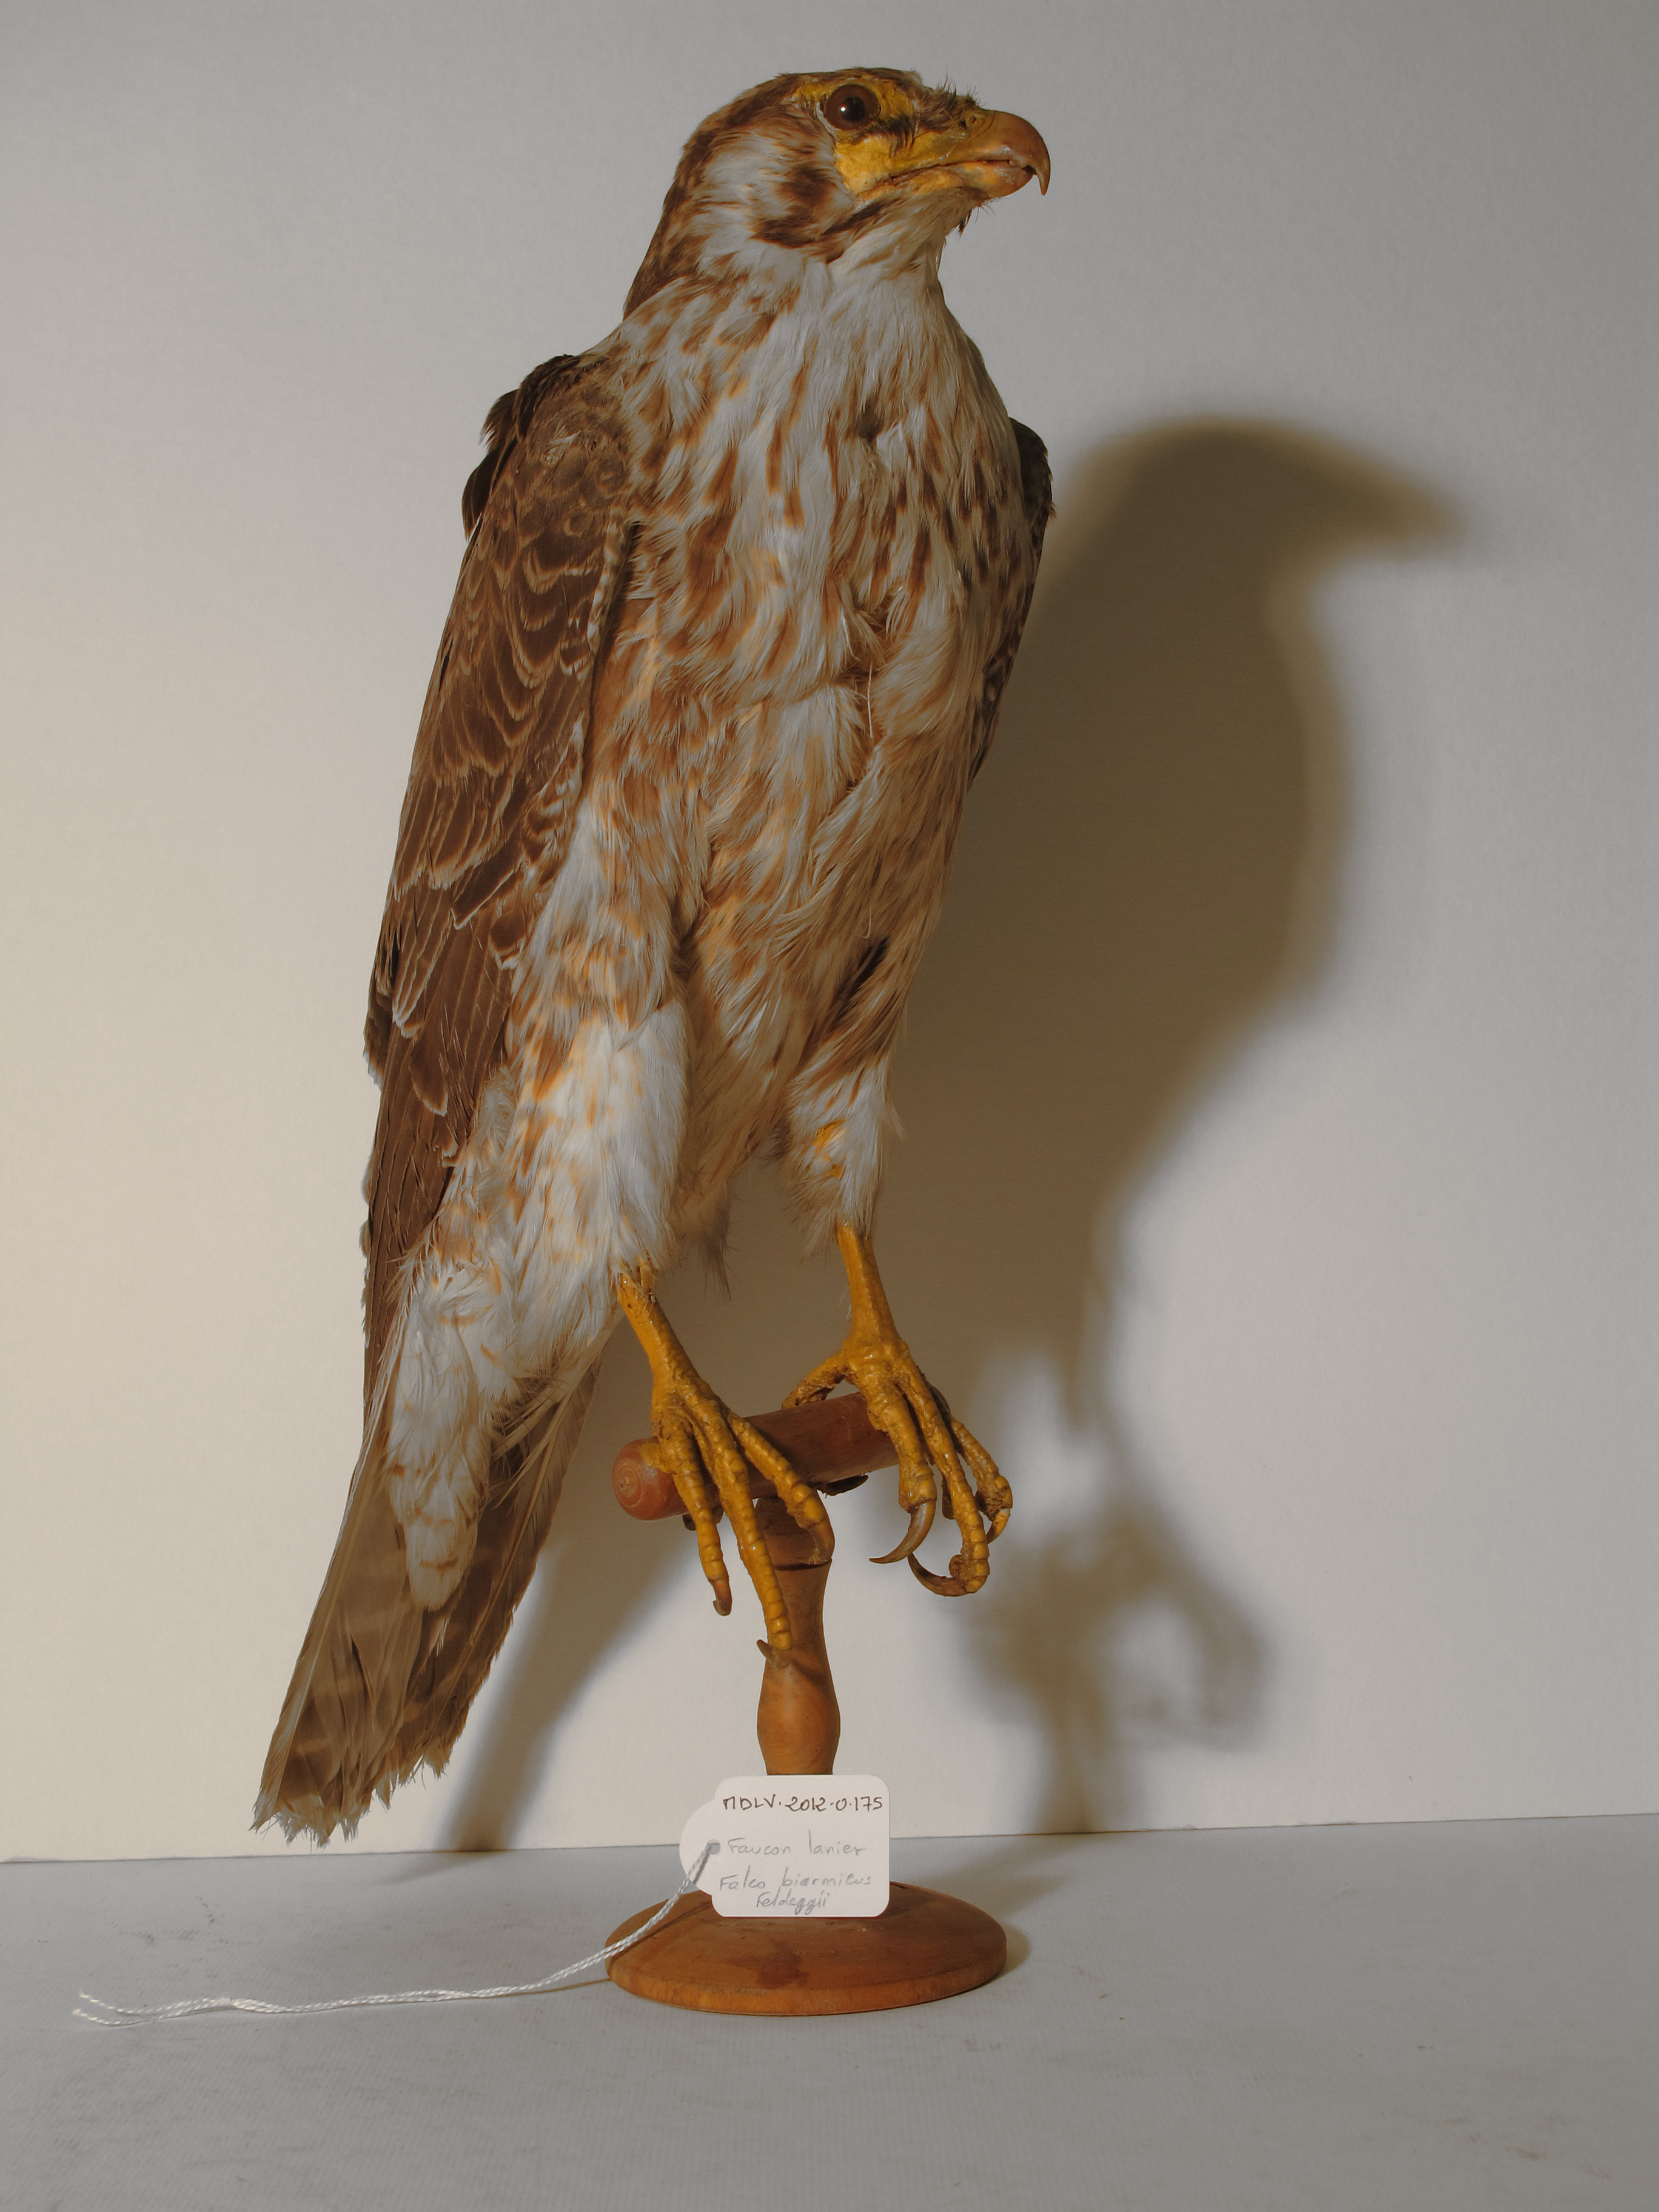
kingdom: Animalia
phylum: Chordata
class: Aves
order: Falconiformes
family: Falconidae
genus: Falco
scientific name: Falco biarmicus
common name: Lanner Falcon
